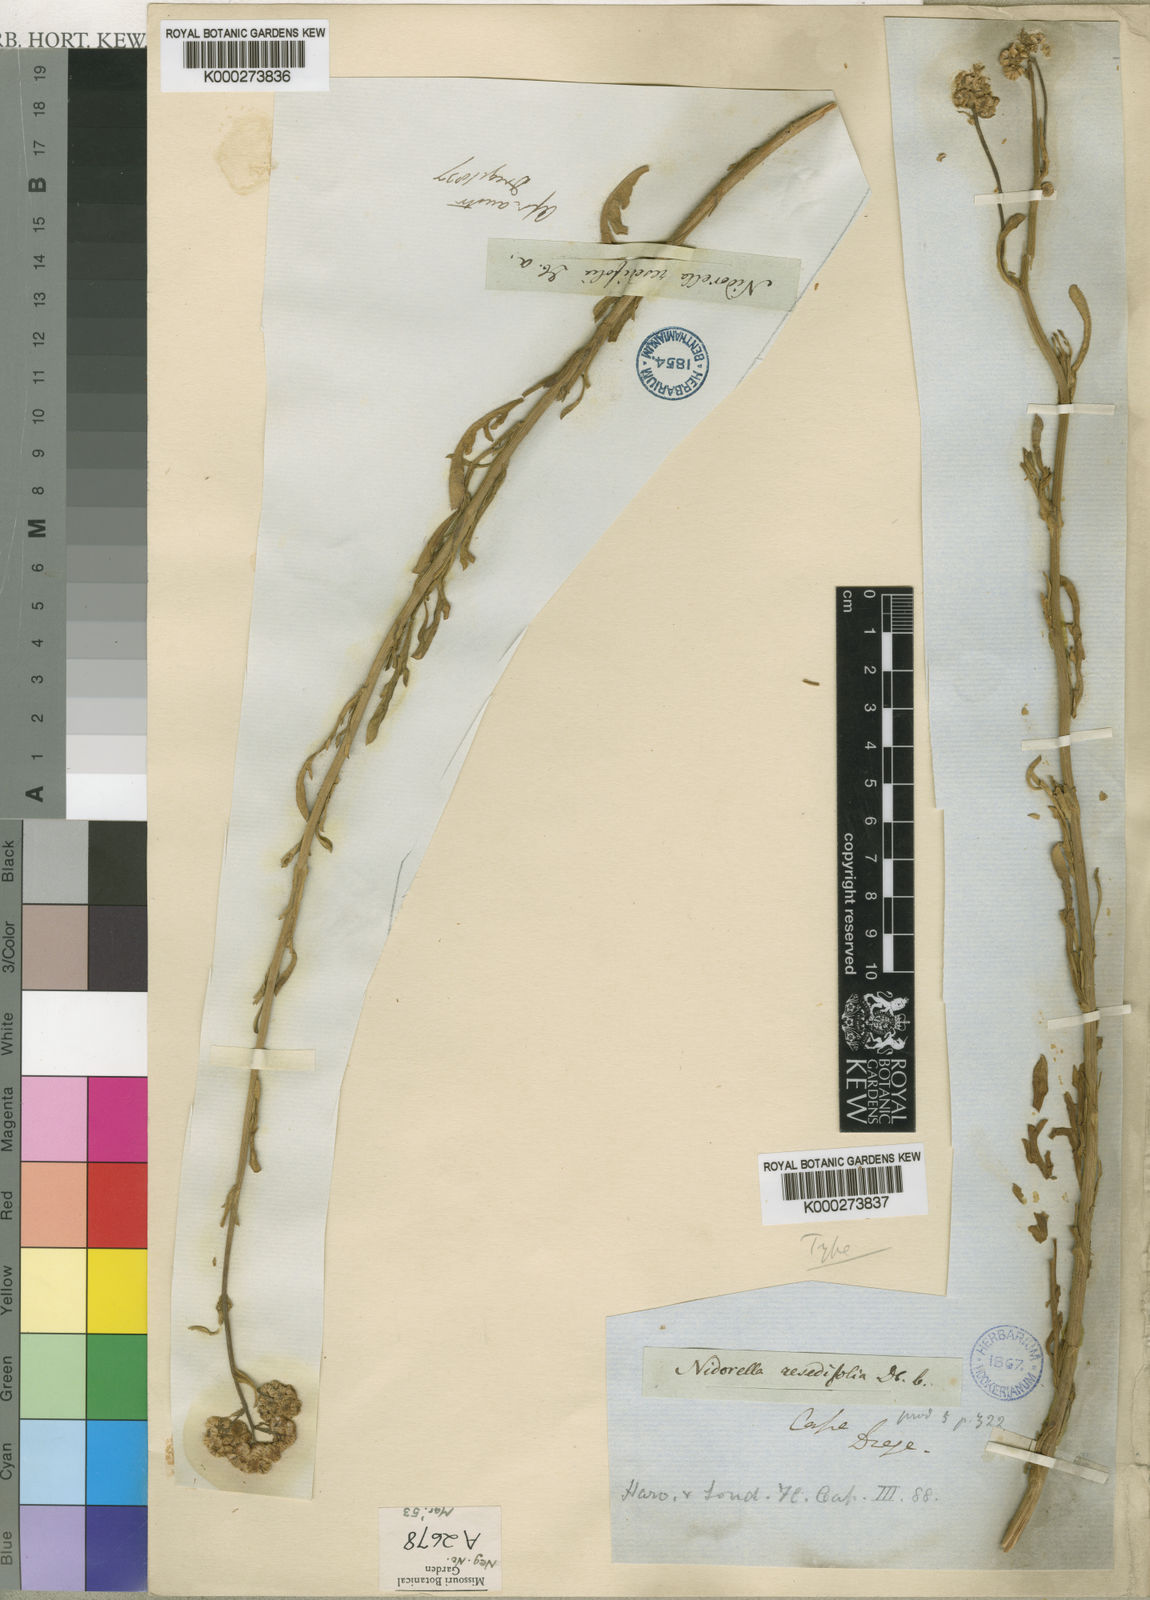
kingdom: Plantae
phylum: Tracheophyta
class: Magnoliopsida
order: Asterales
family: Asteraceae
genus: Nidorella
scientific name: Nidorella resedifolia
